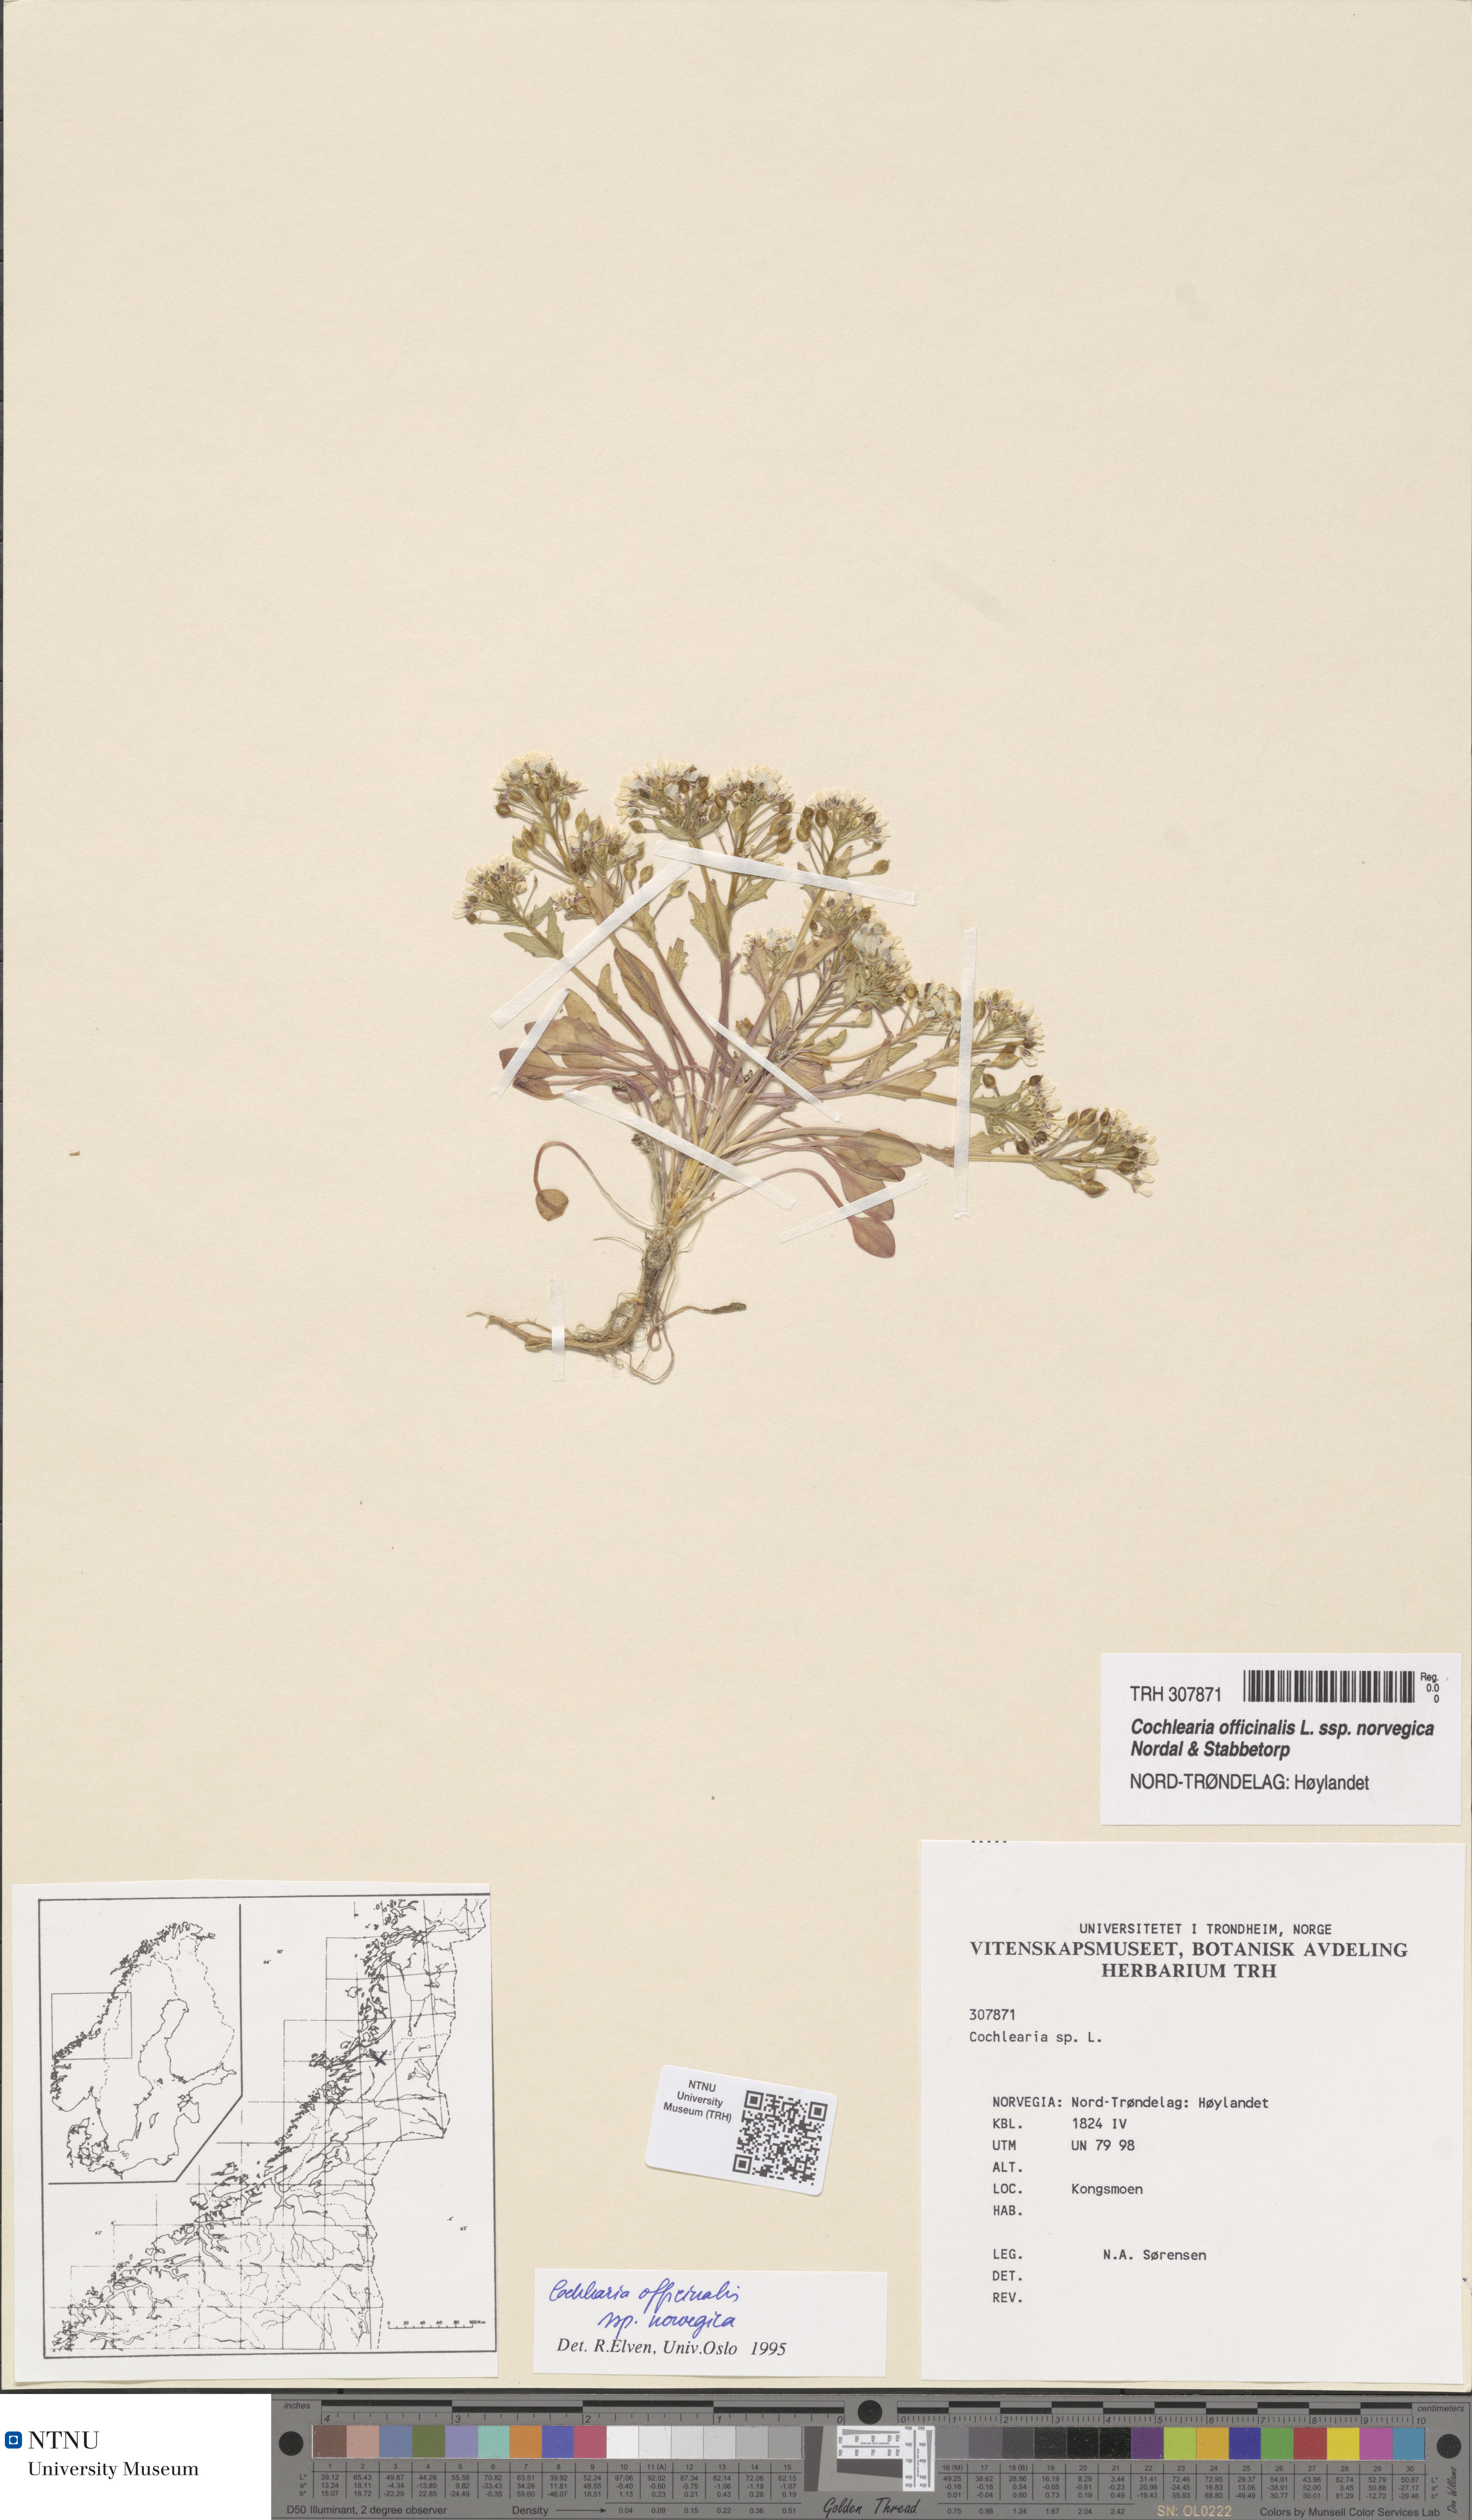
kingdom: Plantae
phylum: Tracheophyta
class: Magnoliopsida
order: Brassicales
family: Brassicaceae
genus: Cochlearia
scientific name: Cochlearia officinalis
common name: Scurvy-grass
